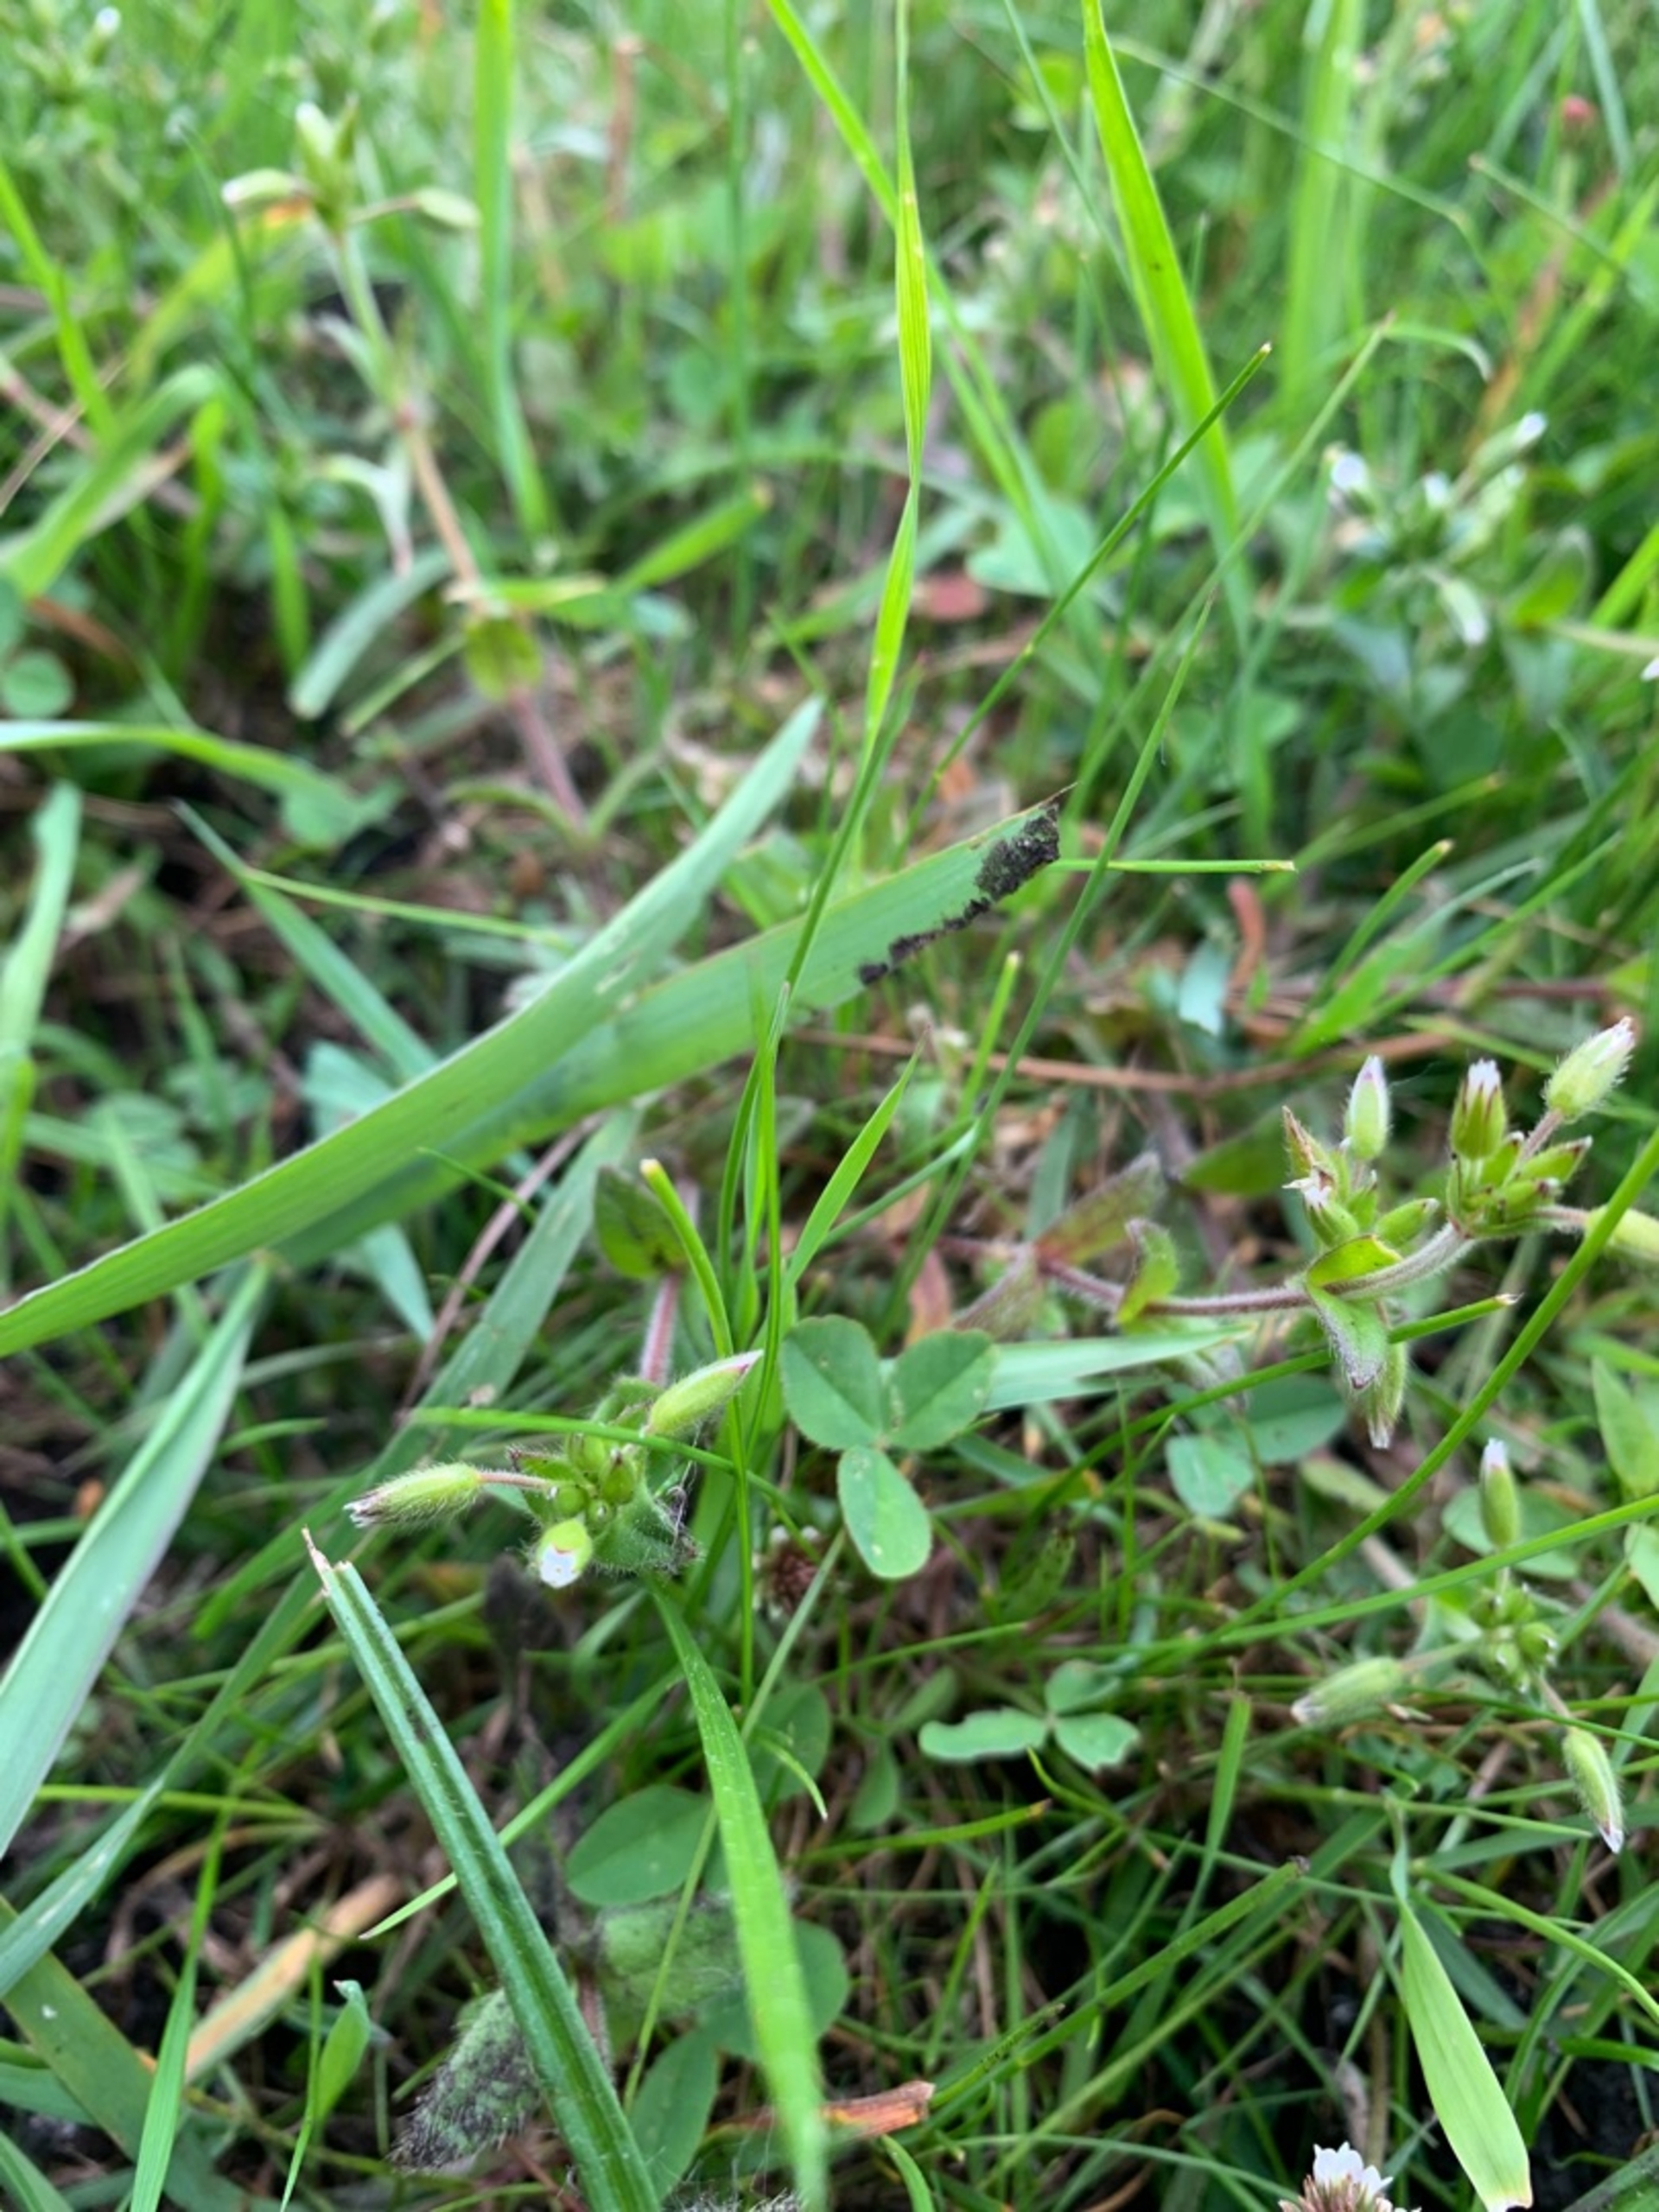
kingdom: Plantae
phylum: Tracheophyta
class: Magnoliopsida
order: Caryophyllales
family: Caryophyllaceae
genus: Cerastium
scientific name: Cerastium fontanum
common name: Almindelig hønsetarm
